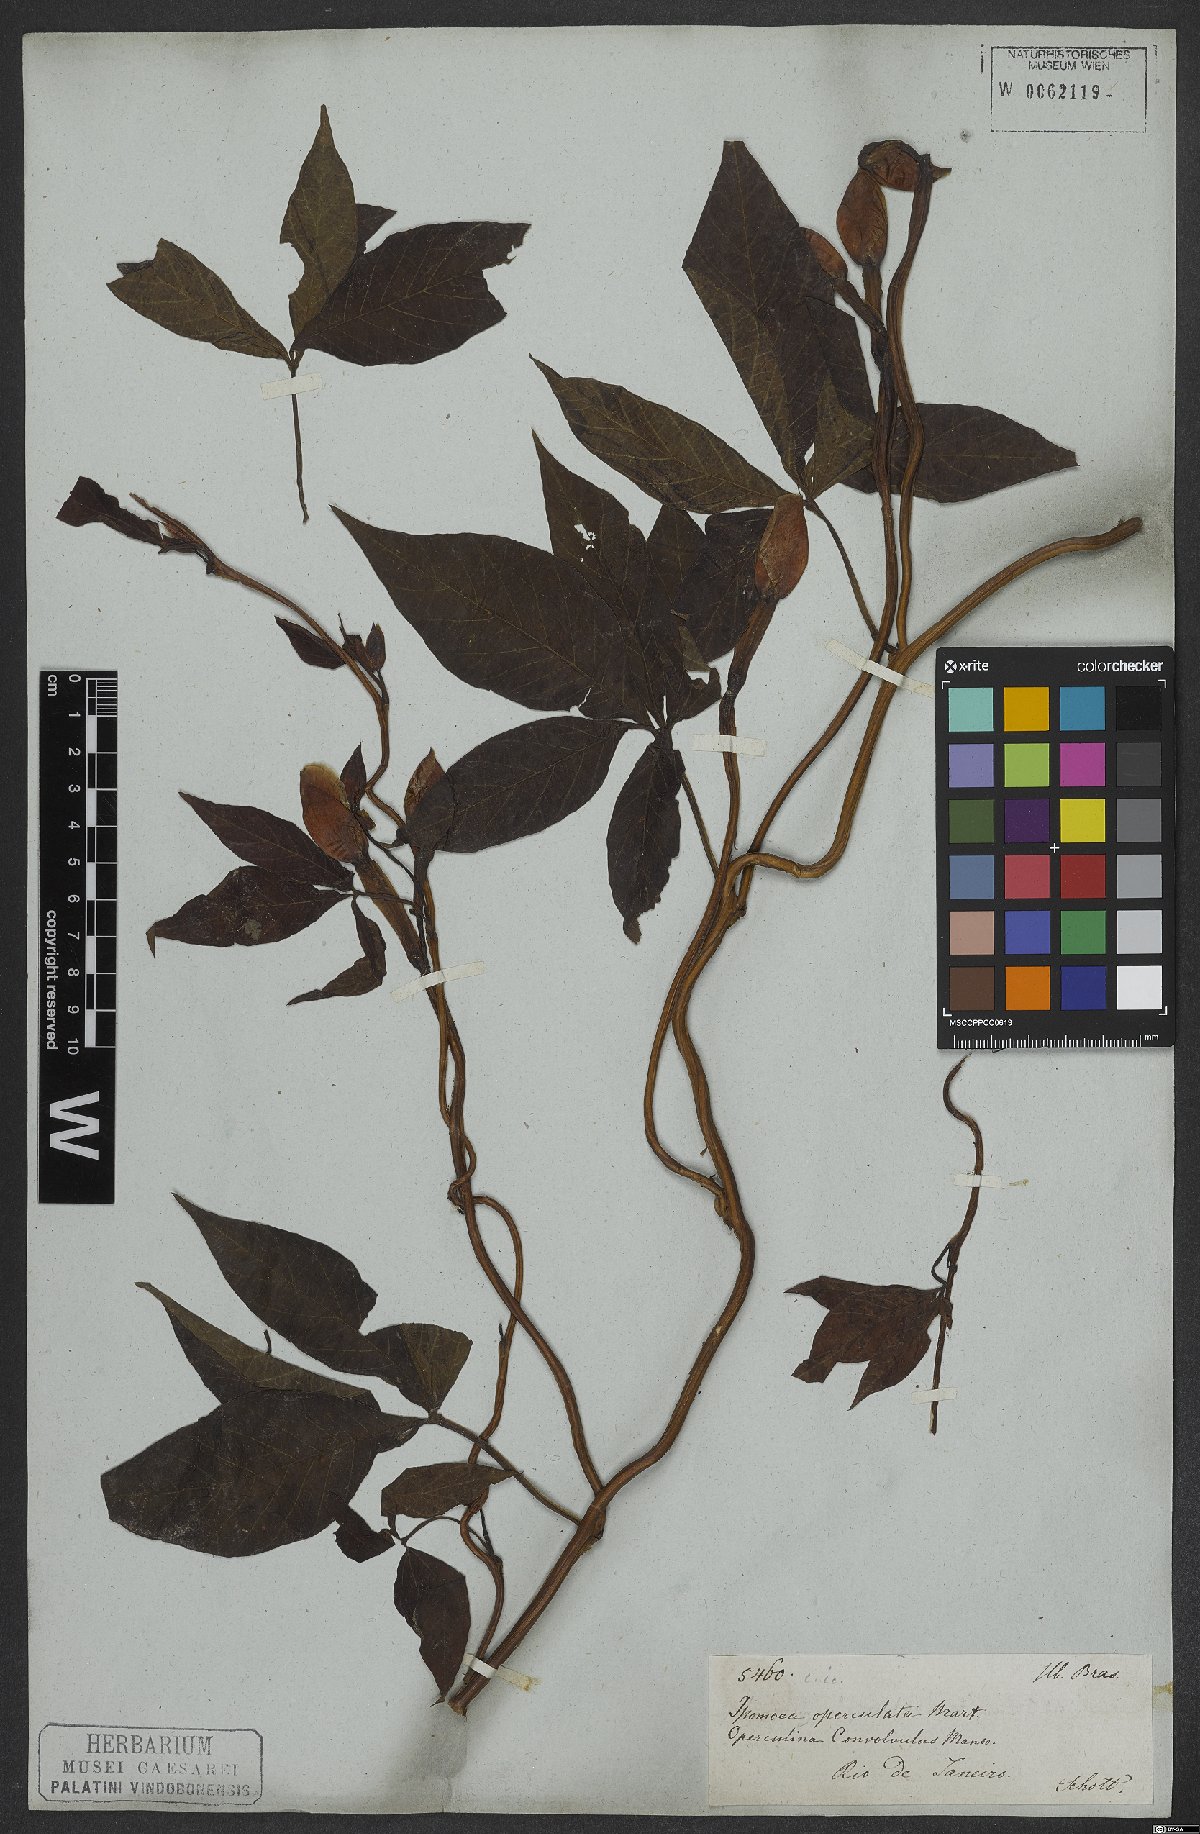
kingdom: Plantae
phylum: Tracheophyta
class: Magnoliopsida
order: Solanales
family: Convolvulaceae
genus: Operculina
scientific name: Operculina macrocarpa
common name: Brazilian jalap
